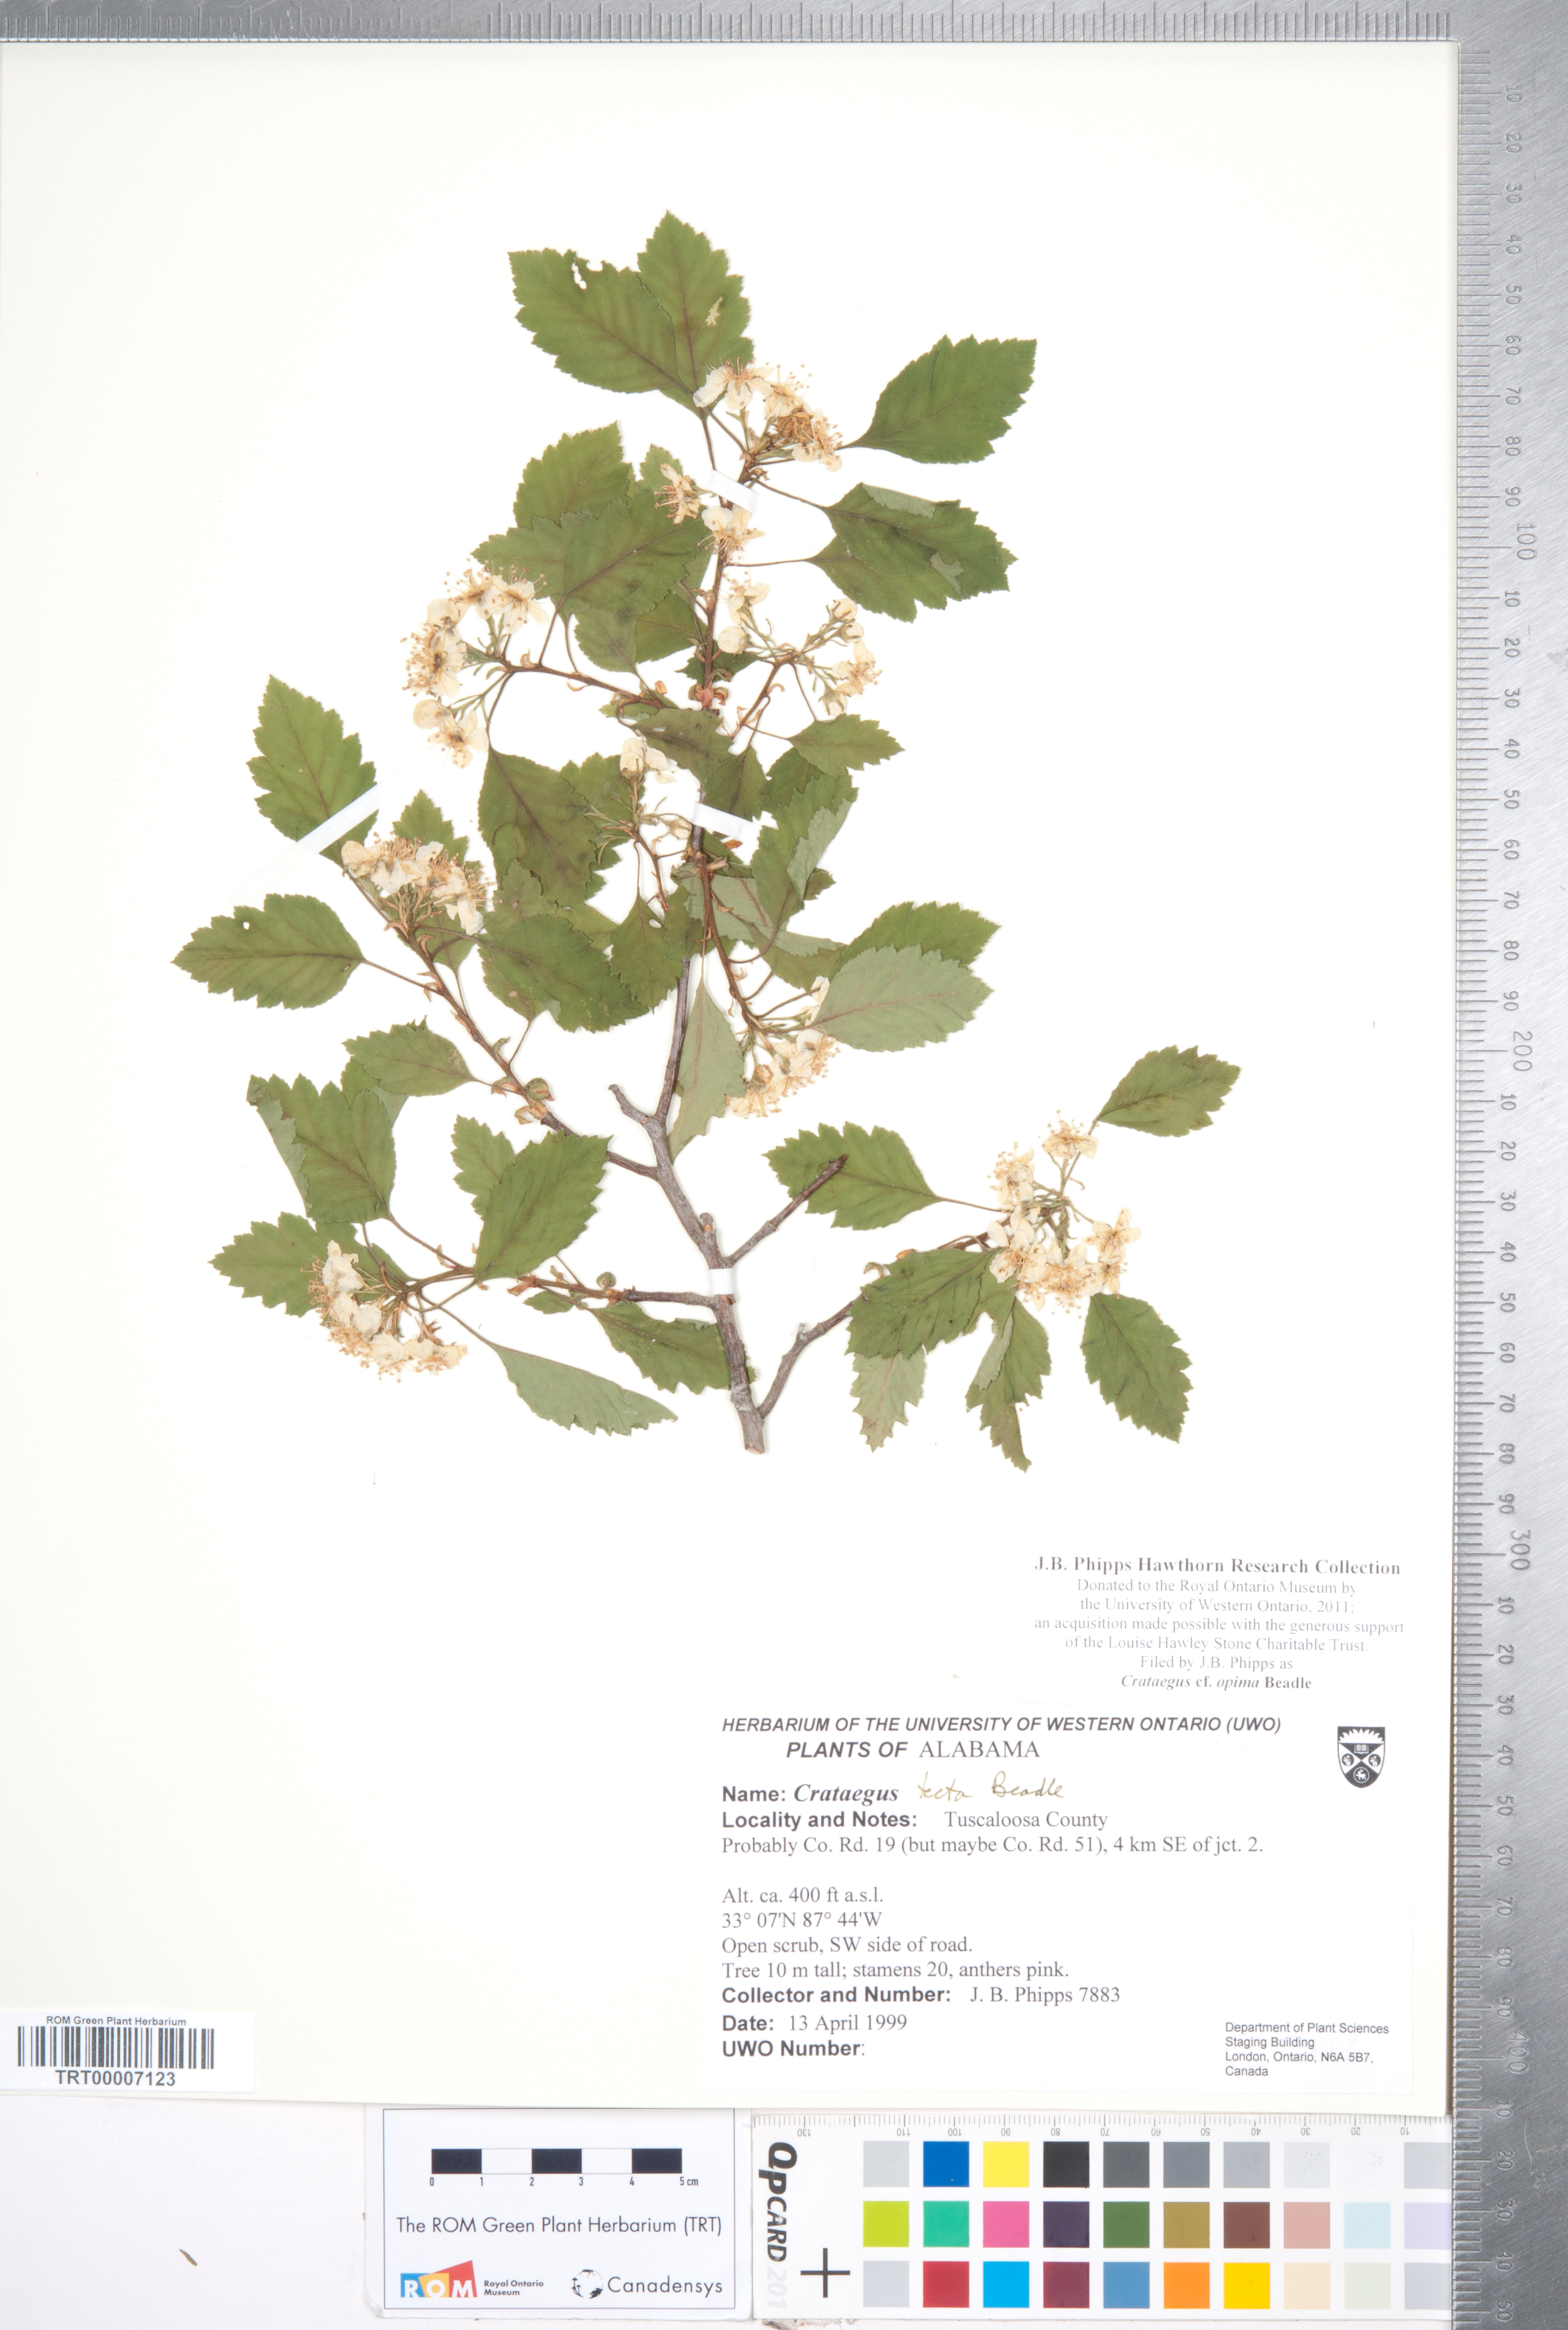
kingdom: Plantae
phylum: Tracheophyta
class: Magnoliopsida
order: Rosales
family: Rosaceae
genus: Crataegus
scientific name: Crataegus pulcherrima
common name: Beautiful hawthorn
